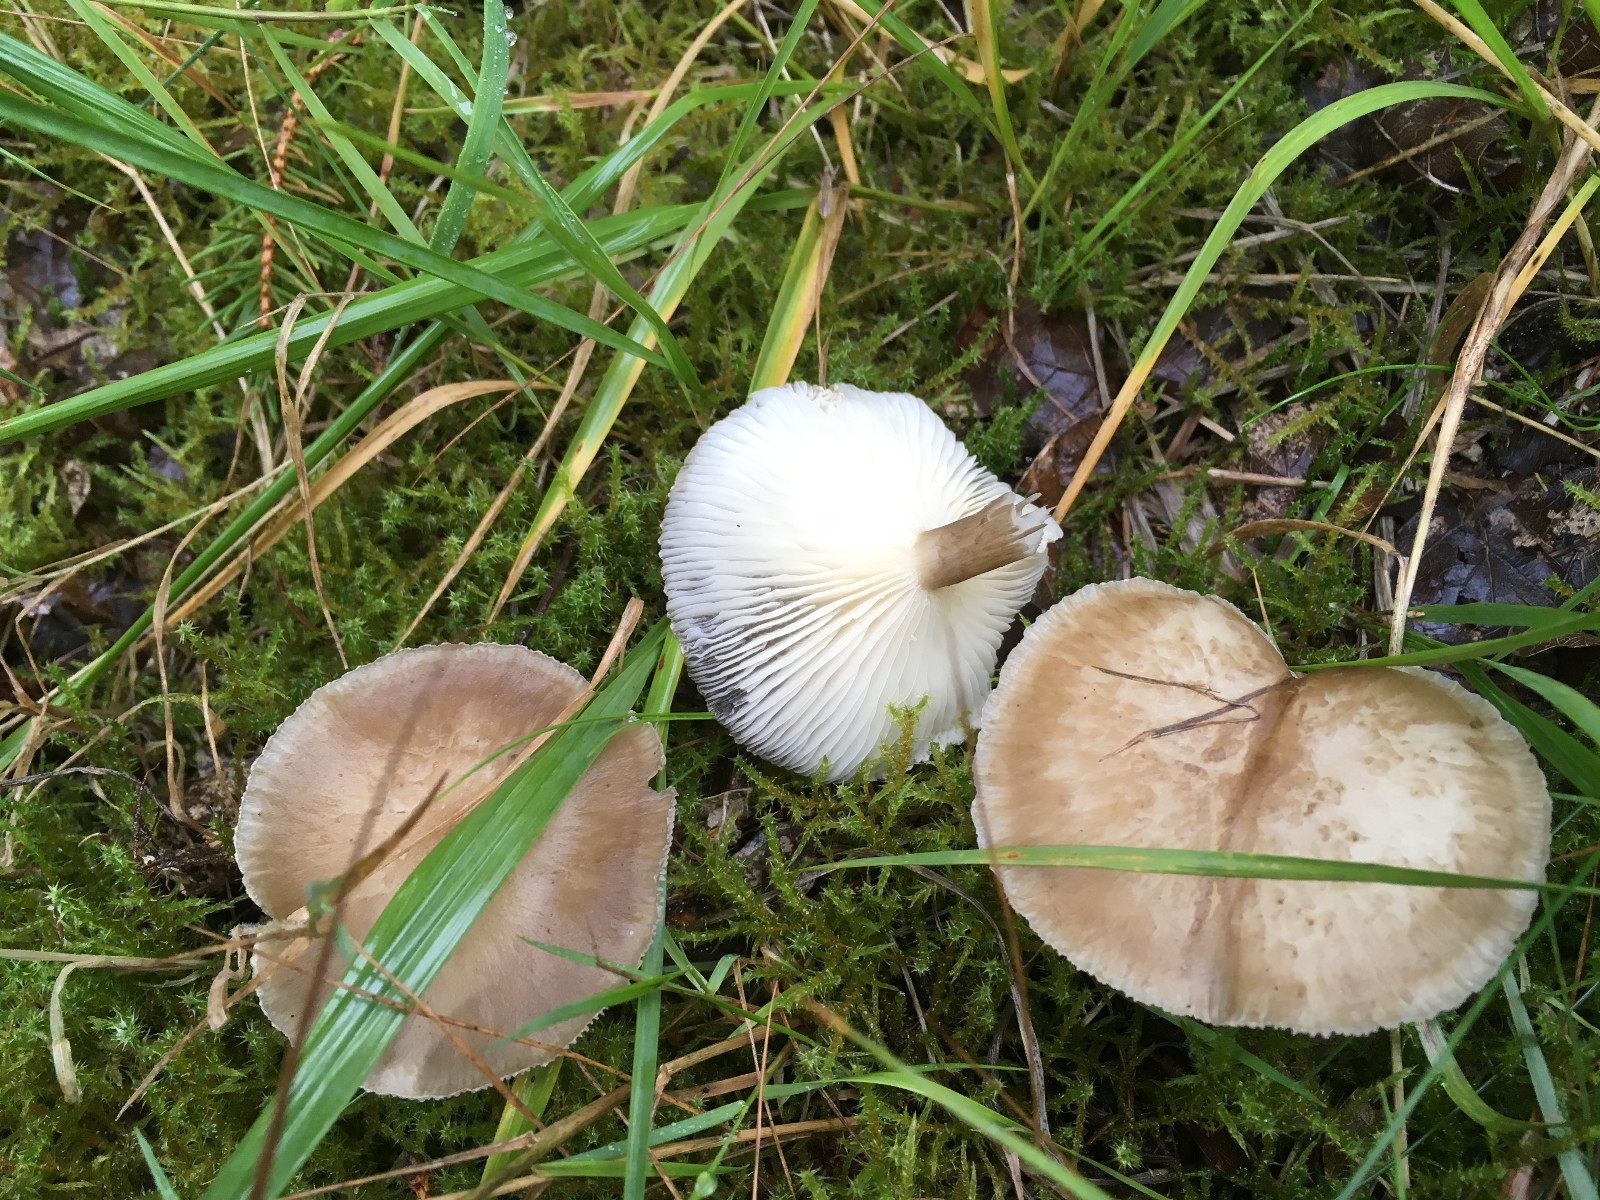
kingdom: Fungi
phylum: Basidiomycota
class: Agaricomycetes
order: Agaricales
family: Hygrophoraceae
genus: Ampulloclitocybe
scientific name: Ampulloclitocybe clavipes
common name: køllefod
